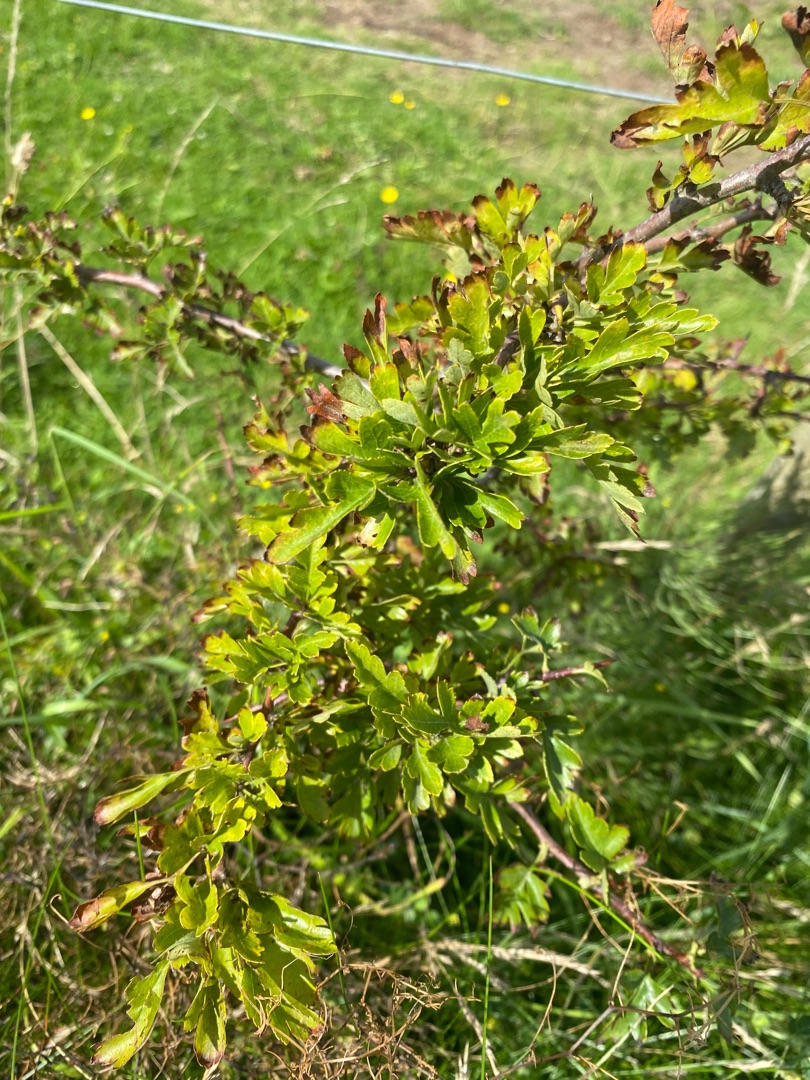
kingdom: Plantae
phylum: Tracheophyta
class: Magnoliopsida
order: Rosales
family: Rosaceae
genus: Crataegus
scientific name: Crataegus monogyna
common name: Engriflet hvidtjørn
